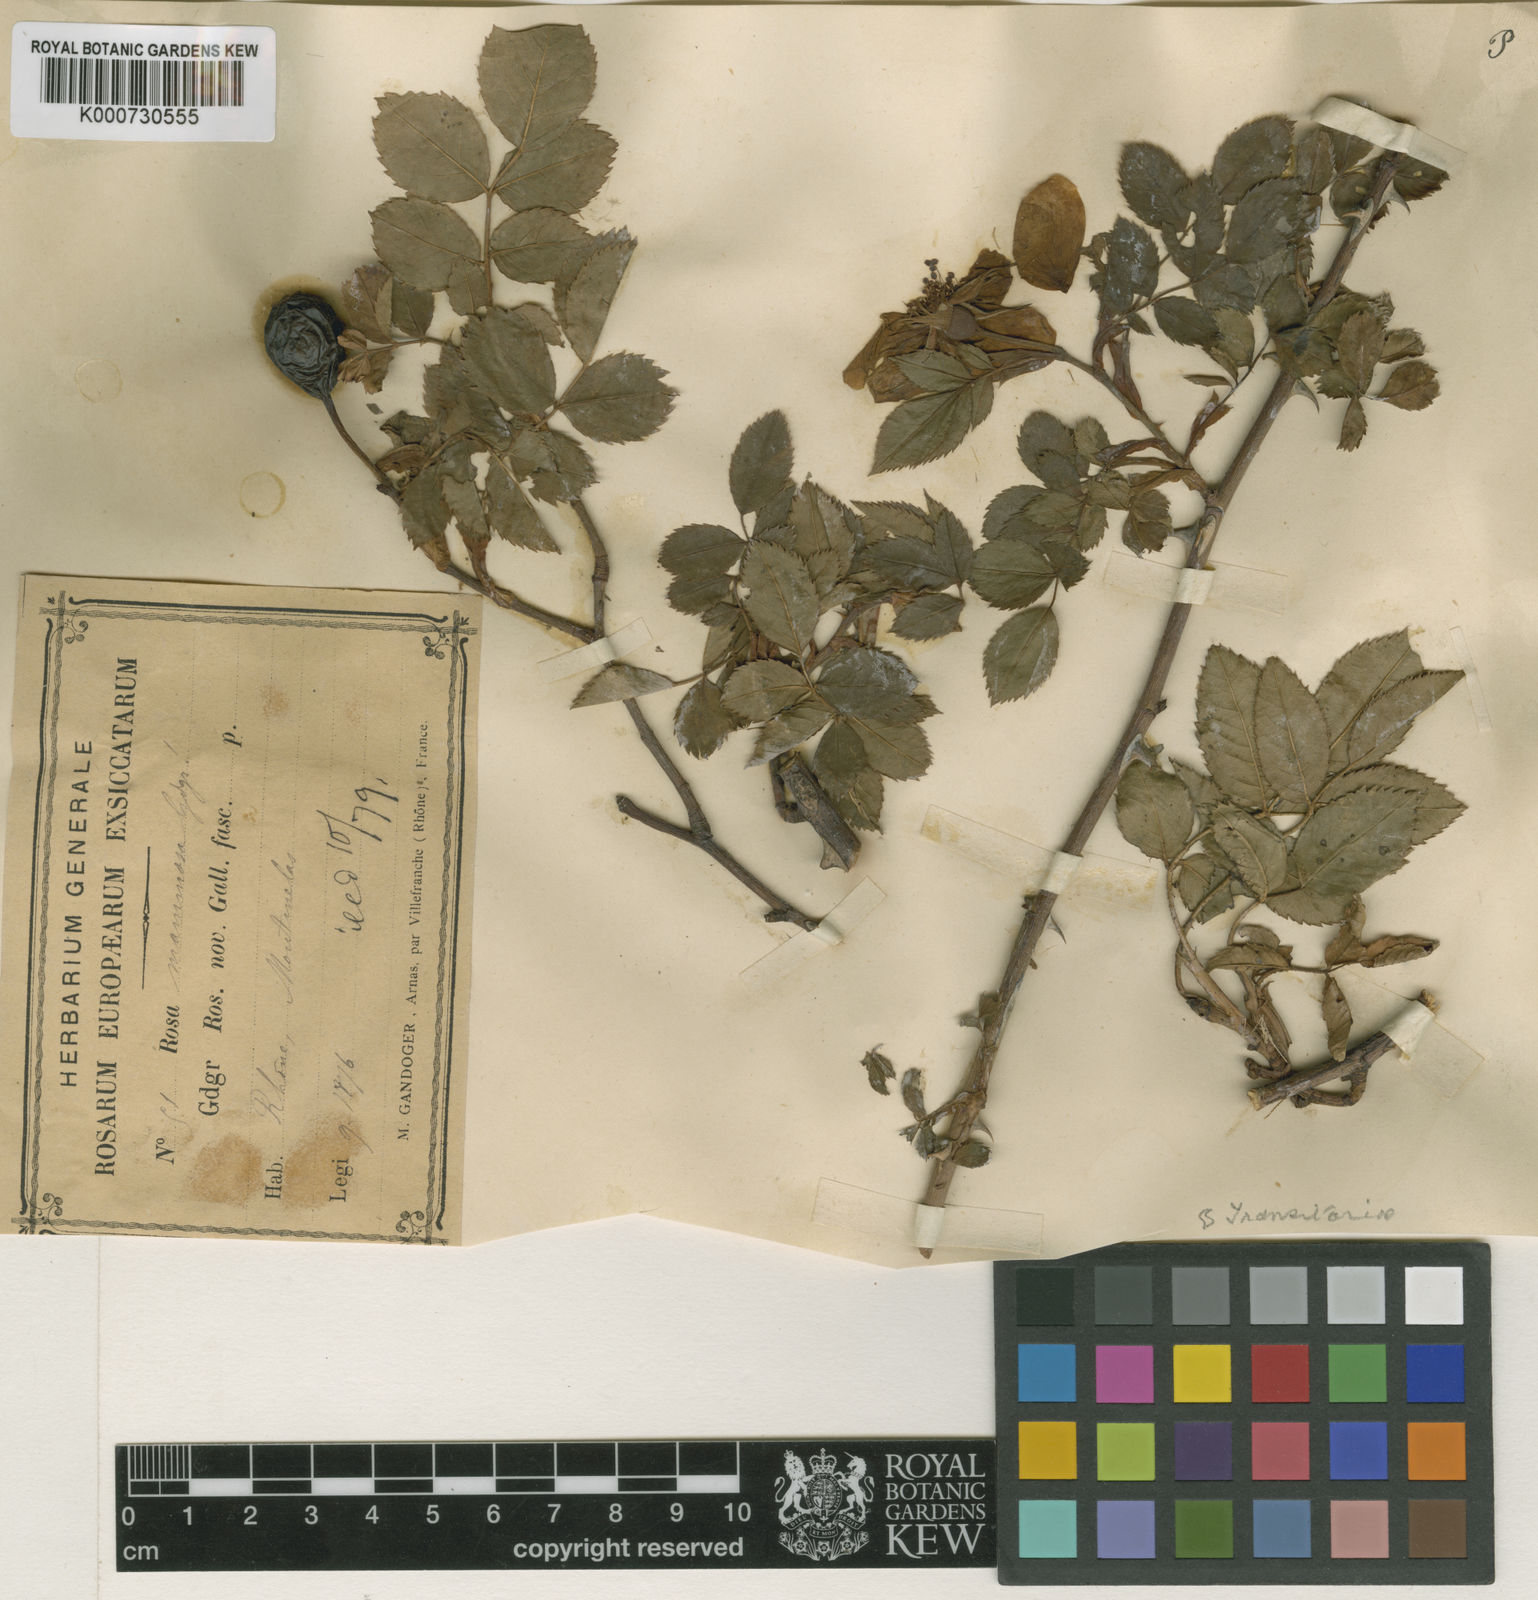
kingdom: Plantae
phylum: Tracheophyta
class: Magnoliopsida
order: Rosales
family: Rosaceae
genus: Rosa
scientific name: Rosa
